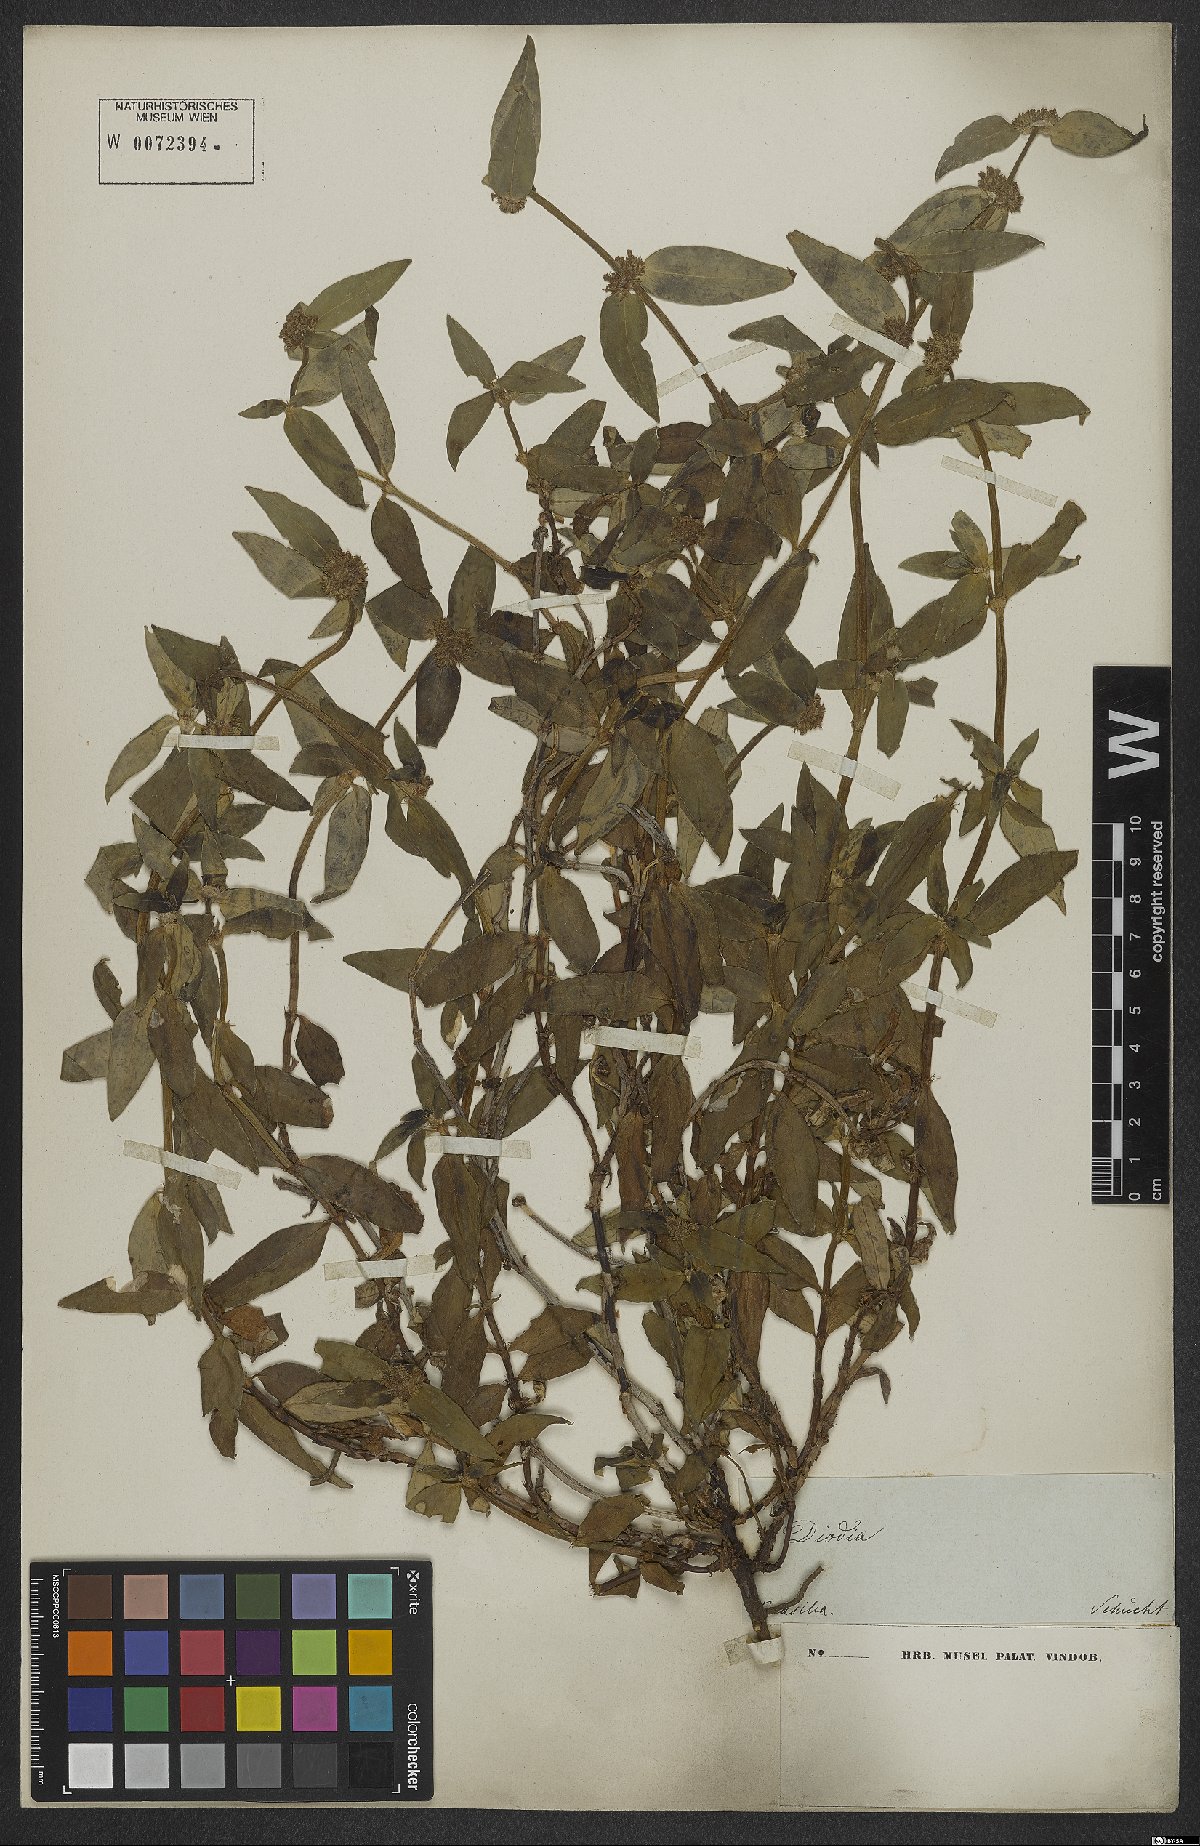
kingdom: Plantae
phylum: Tracheophyta
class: Magnoliopsida
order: Gentianales
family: Rubiaceae
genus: Mitracarpus
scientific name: Mitracarpus lhotzkyanus
